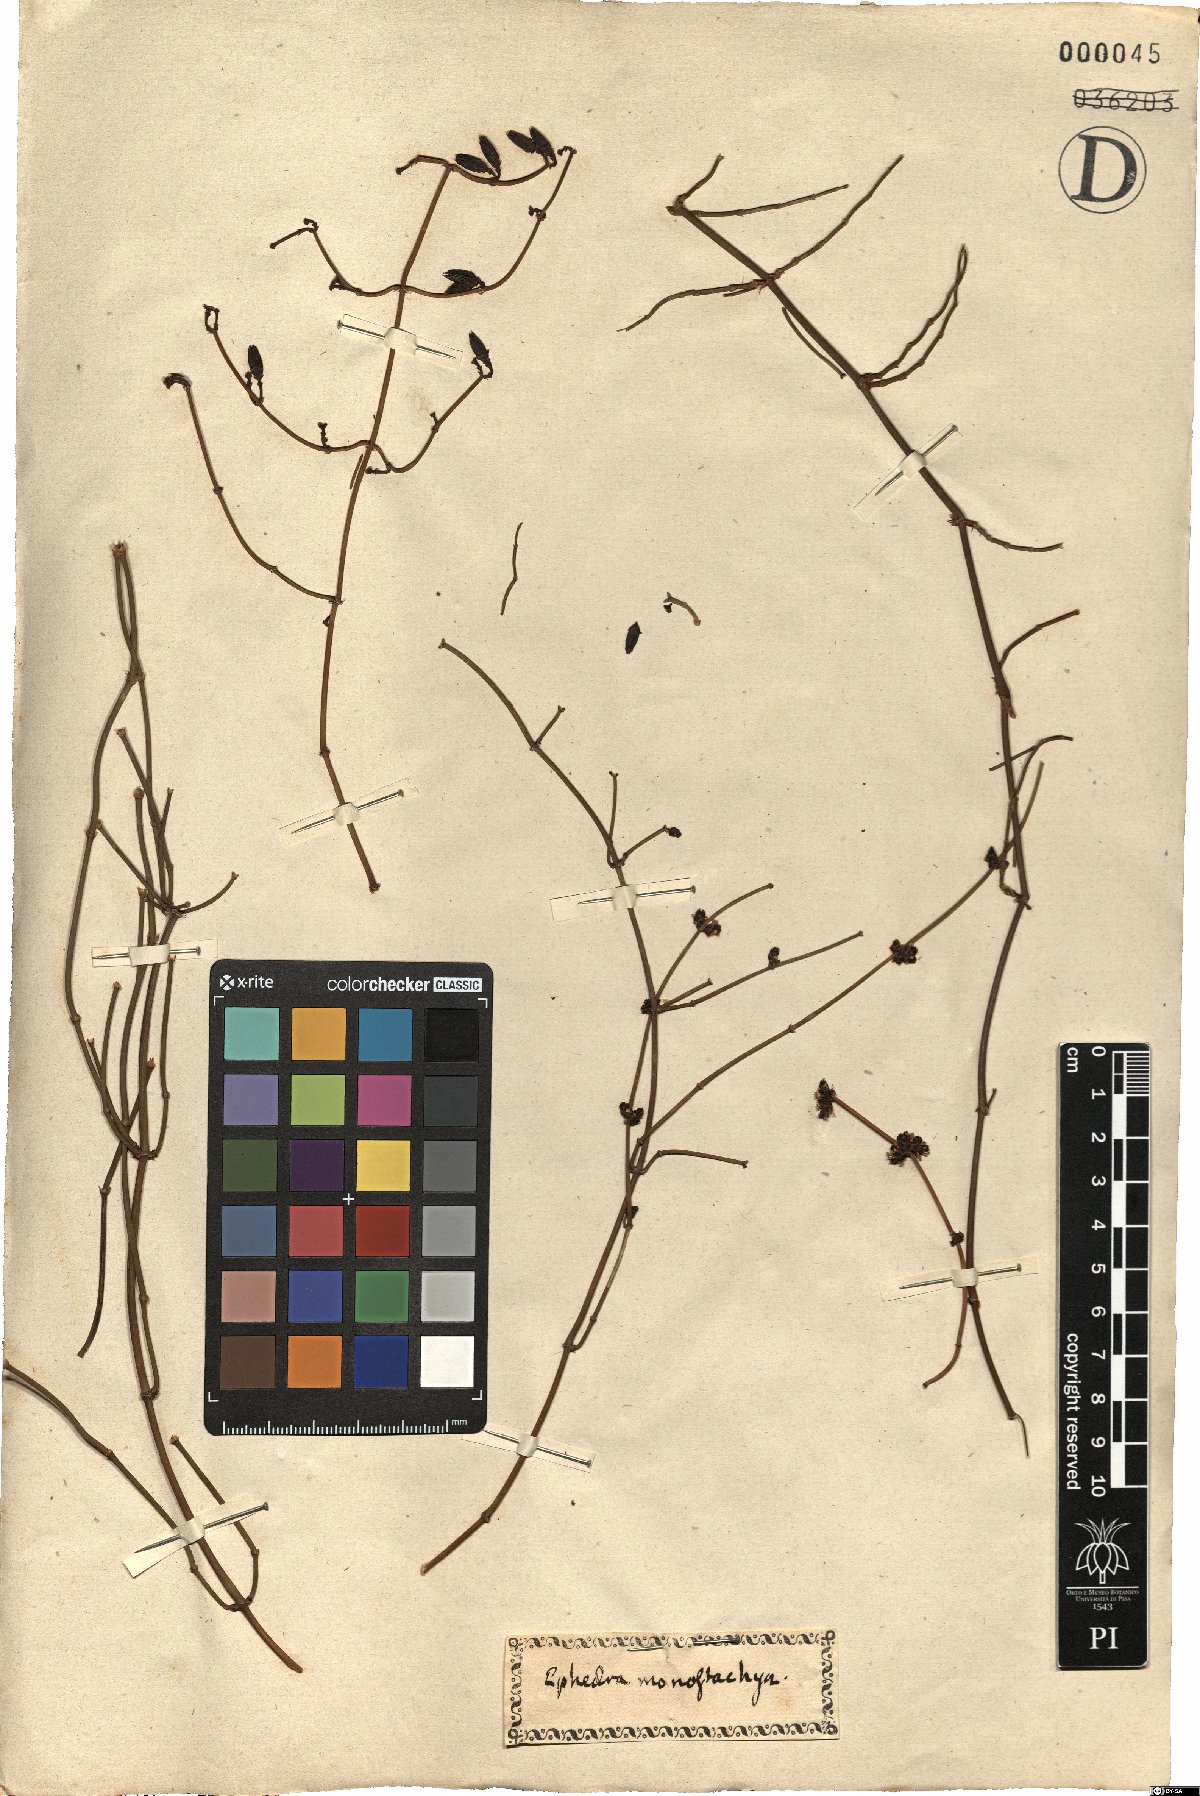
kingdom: Plantae
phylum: Tracheophyta
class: Gnetopsida
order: Ephedrales
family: Ephedraceae
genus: Ephedra
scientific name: Ephedra distachya
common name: Sea grape
